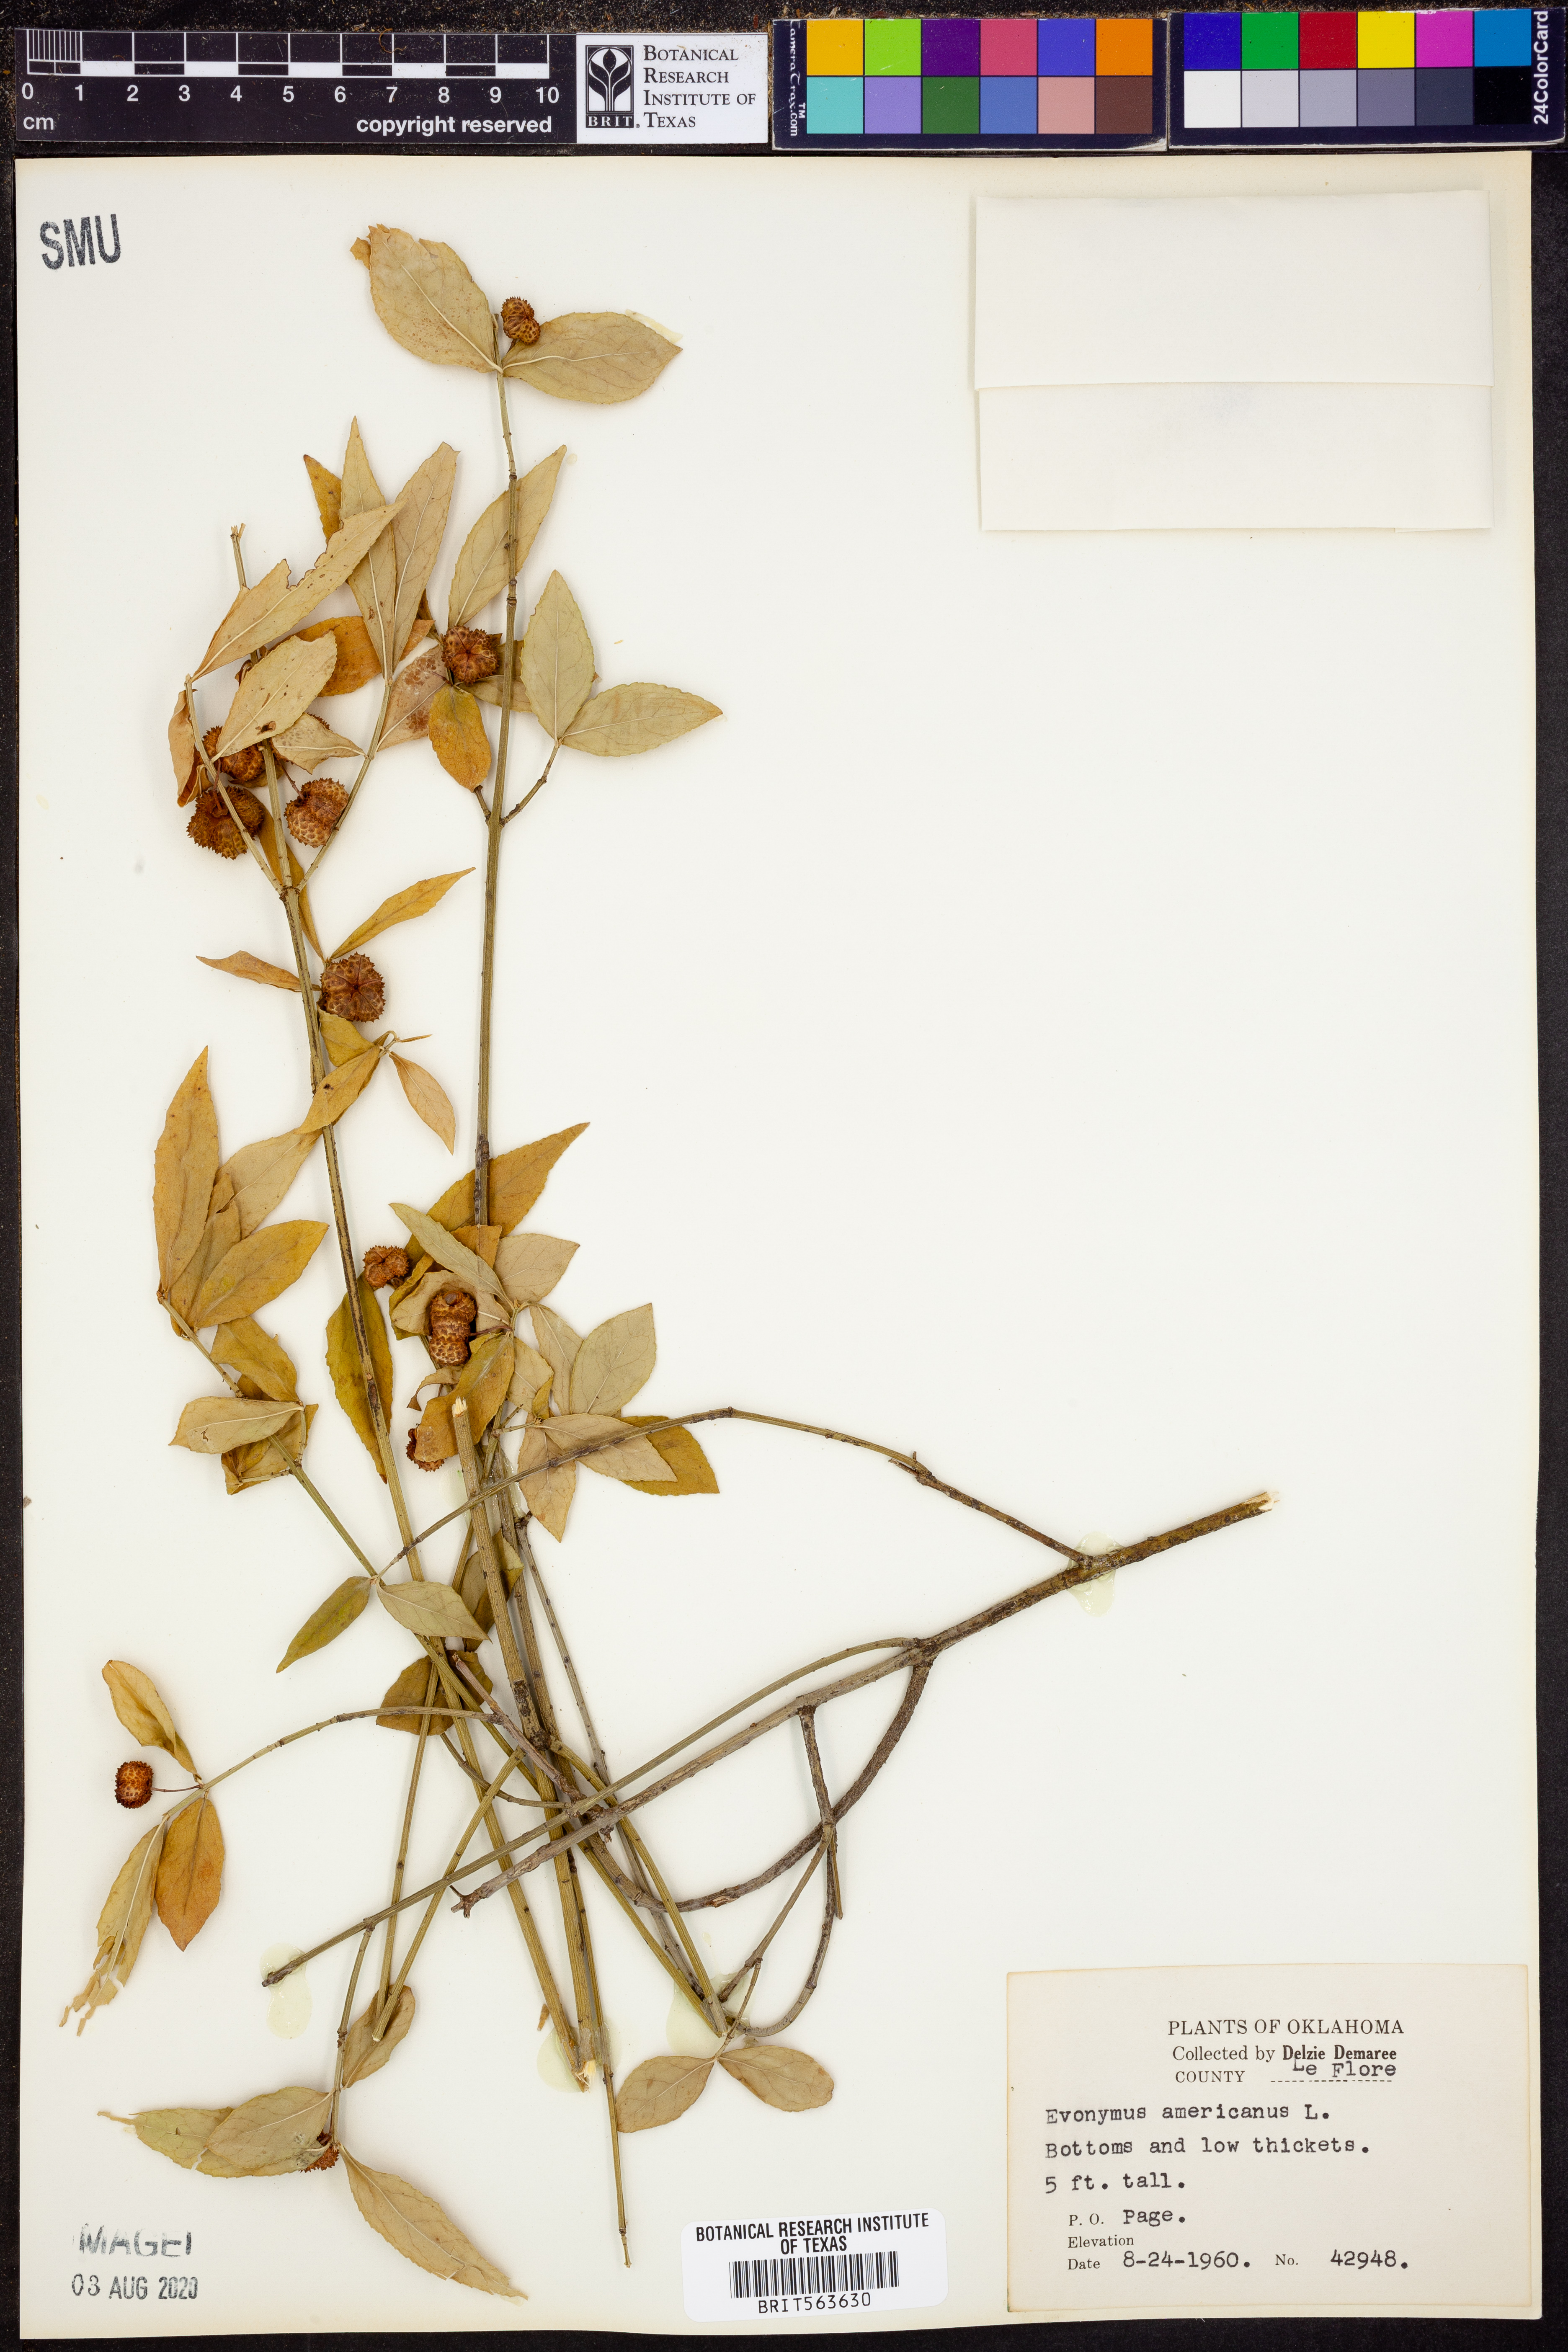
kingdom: Plantae
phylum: Tracheophyta
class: Magnoliopsida
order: Celastrales
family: Celastraceae
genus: Euonymus
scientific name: Euonymus americanus
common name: Bursting-heart
